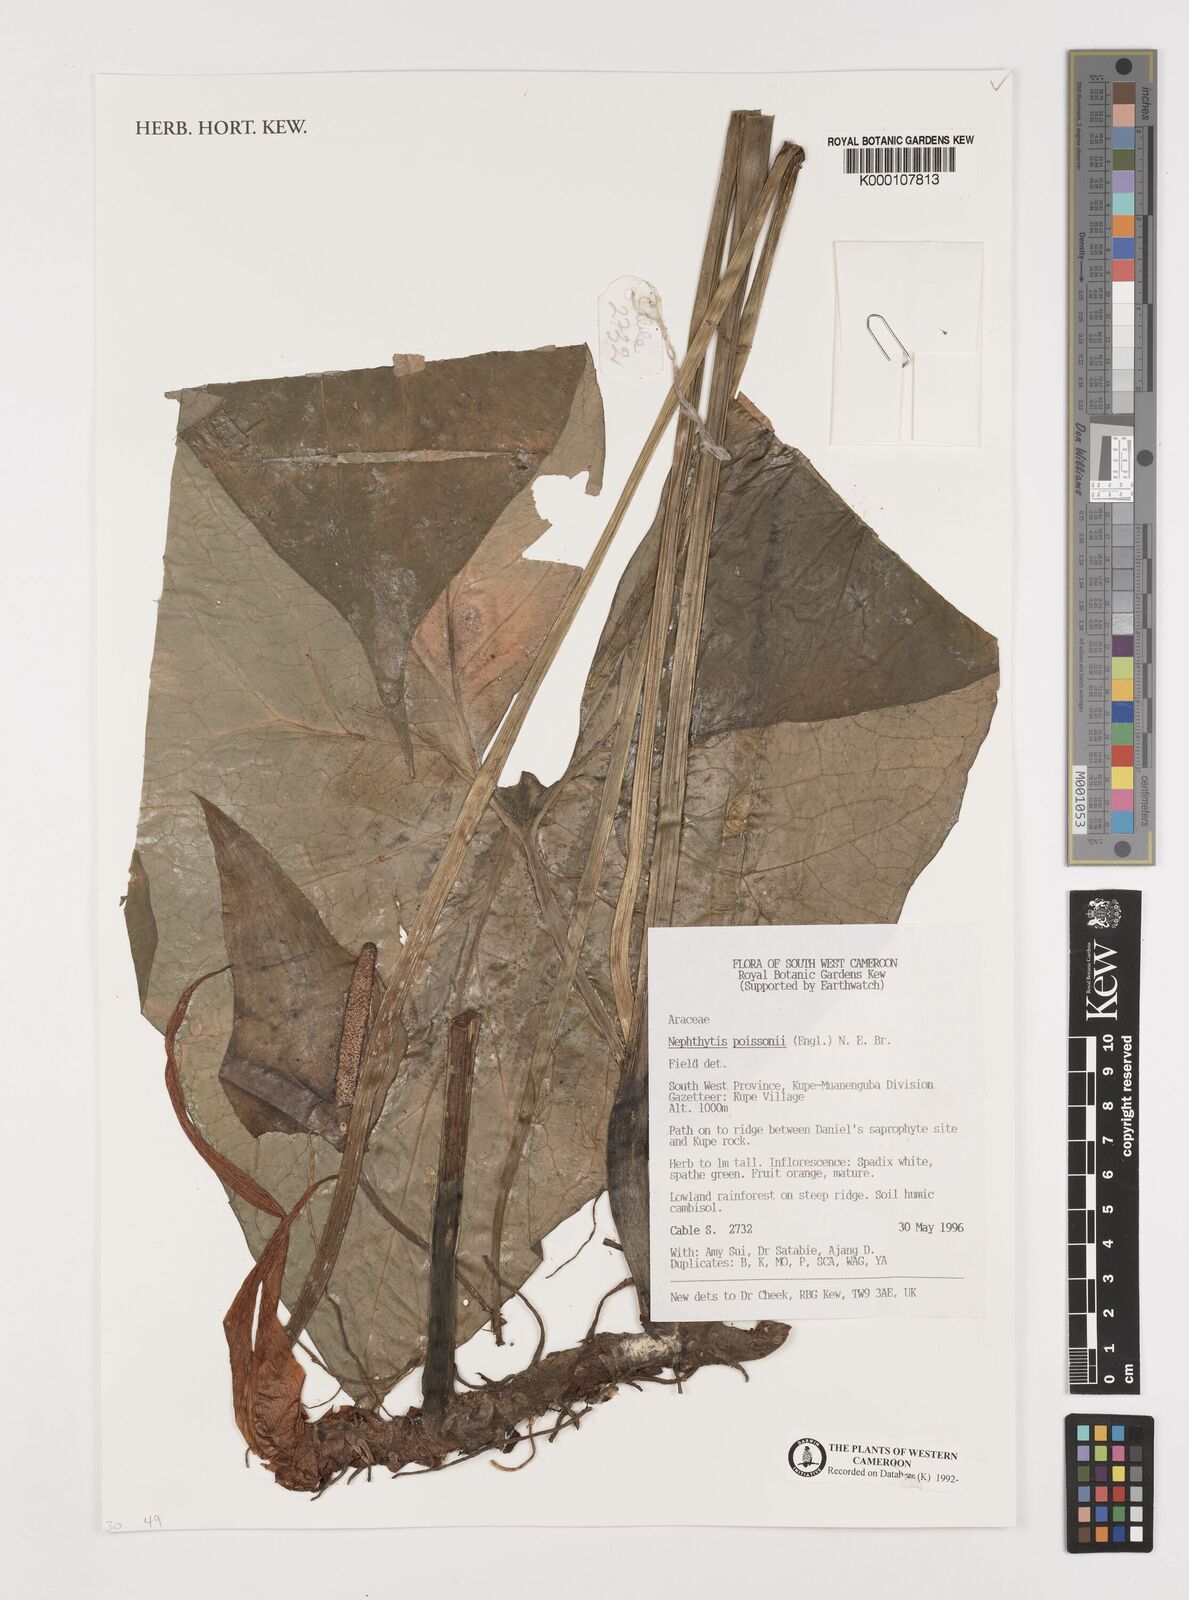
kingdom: Plantae
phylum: Tracheophyta
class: Liliopsida
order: Alismatales
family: Araceae
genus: Nephthytis
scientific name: Nephthytis poissonii
